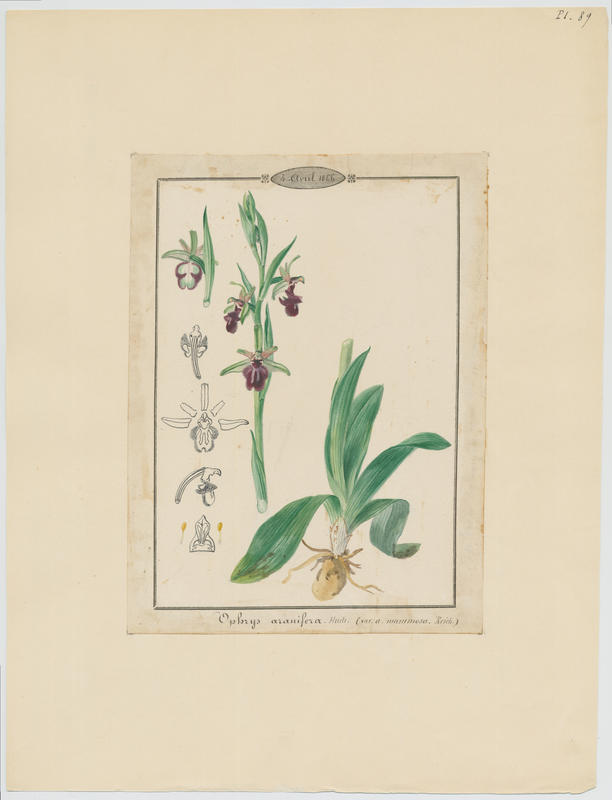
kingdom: Plantae
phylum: Tracheophyta
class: Liliopsida
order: Asparagales
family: Orchidaceae
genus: Ophrys
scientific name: Ophrys sphegodes
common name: Early spider-orchid
